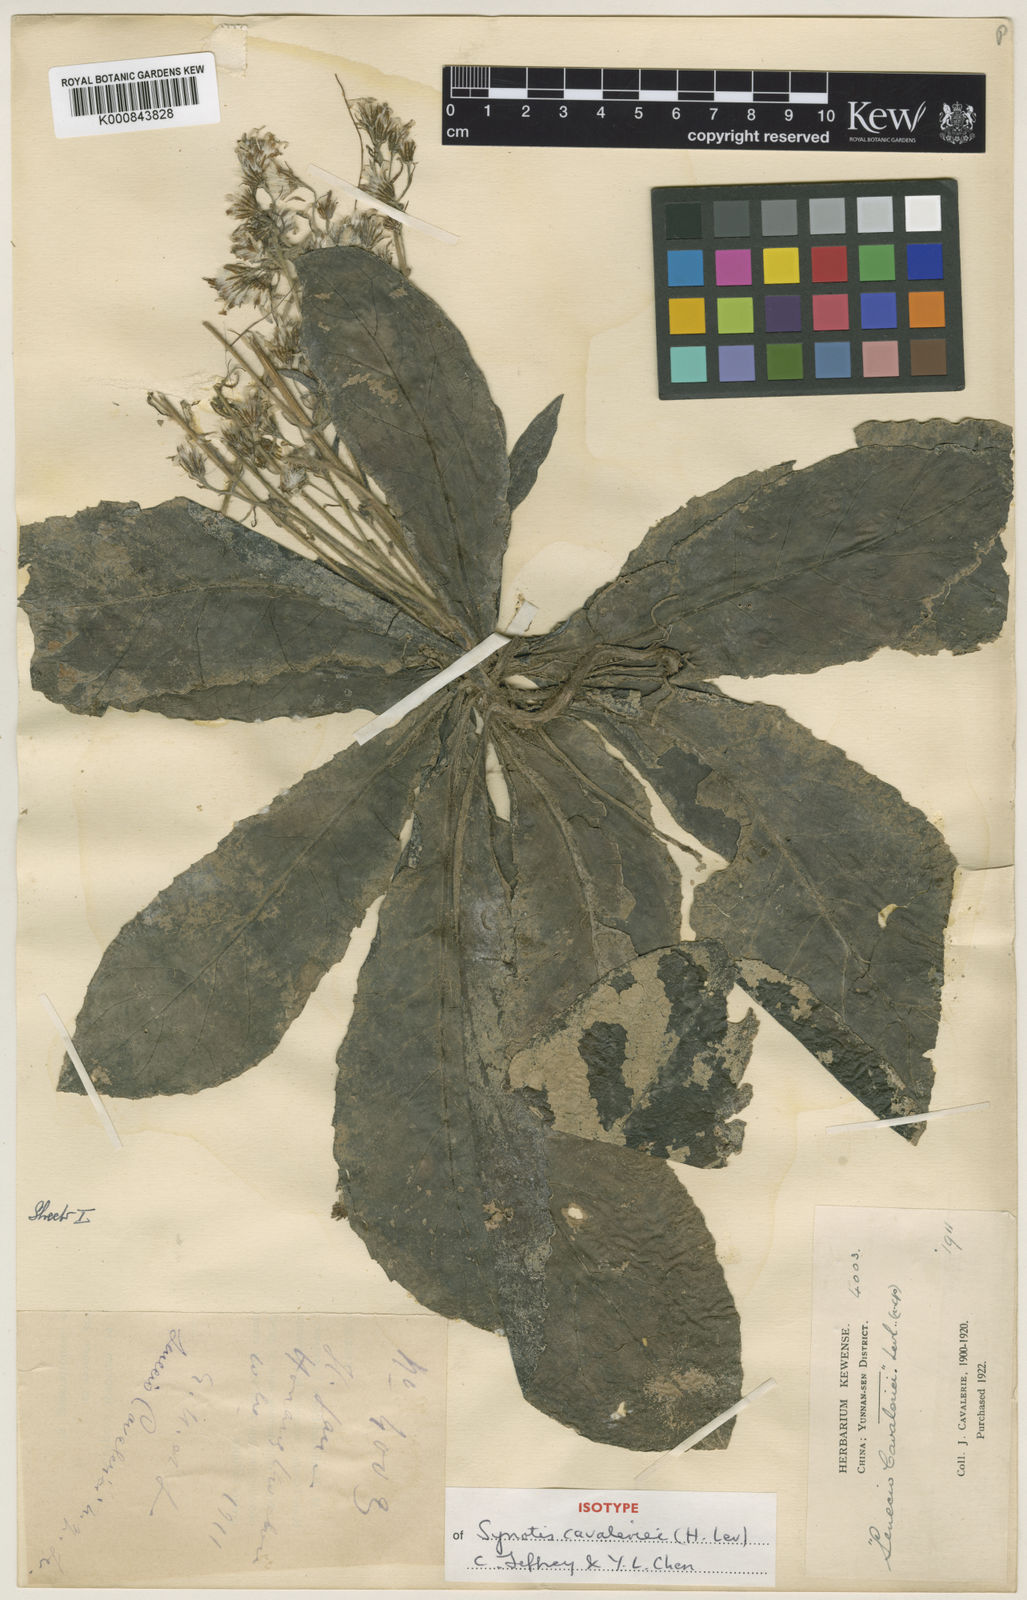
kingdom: Plantae
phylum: Tracheophyta
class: Magnoliopsida
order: Asterales
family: Asteraceae
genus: Synotis
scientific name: Synotis
